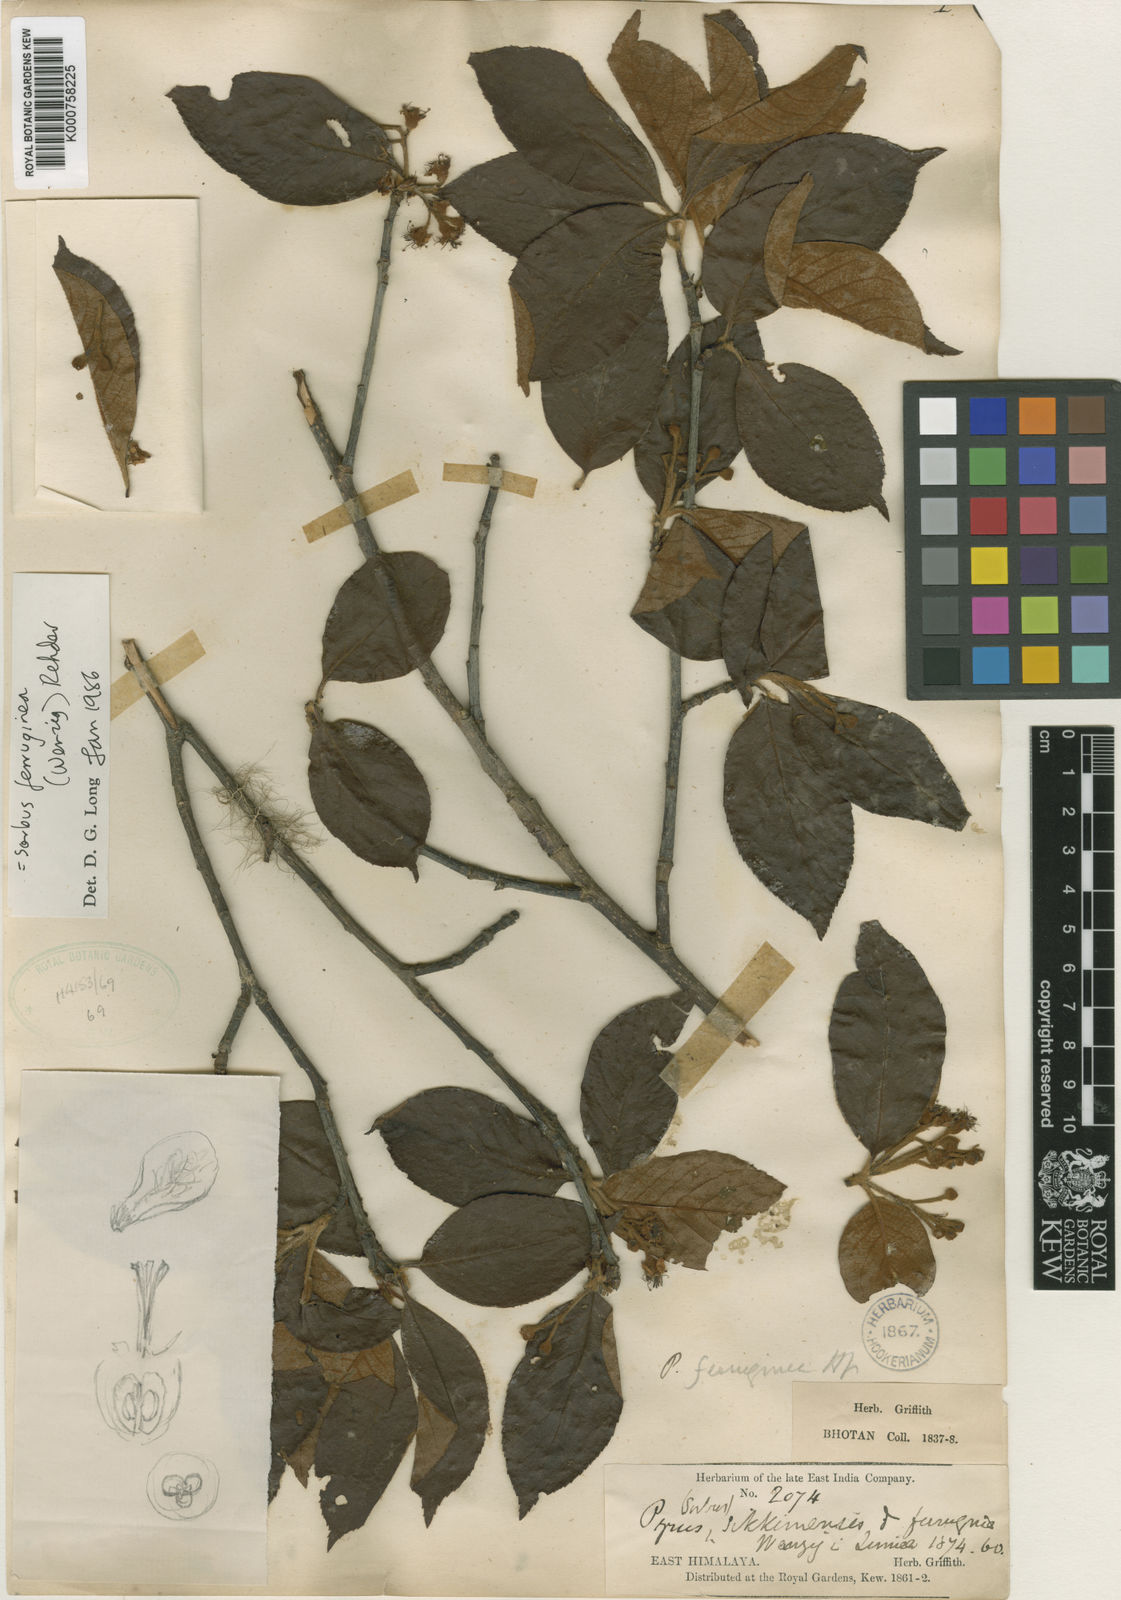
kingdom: Plantae
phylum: Tracheophyta
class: Magnoliopsida
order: Rosales
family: Rosaceae
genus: Sorbus
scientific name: Sorbus ferruginea
